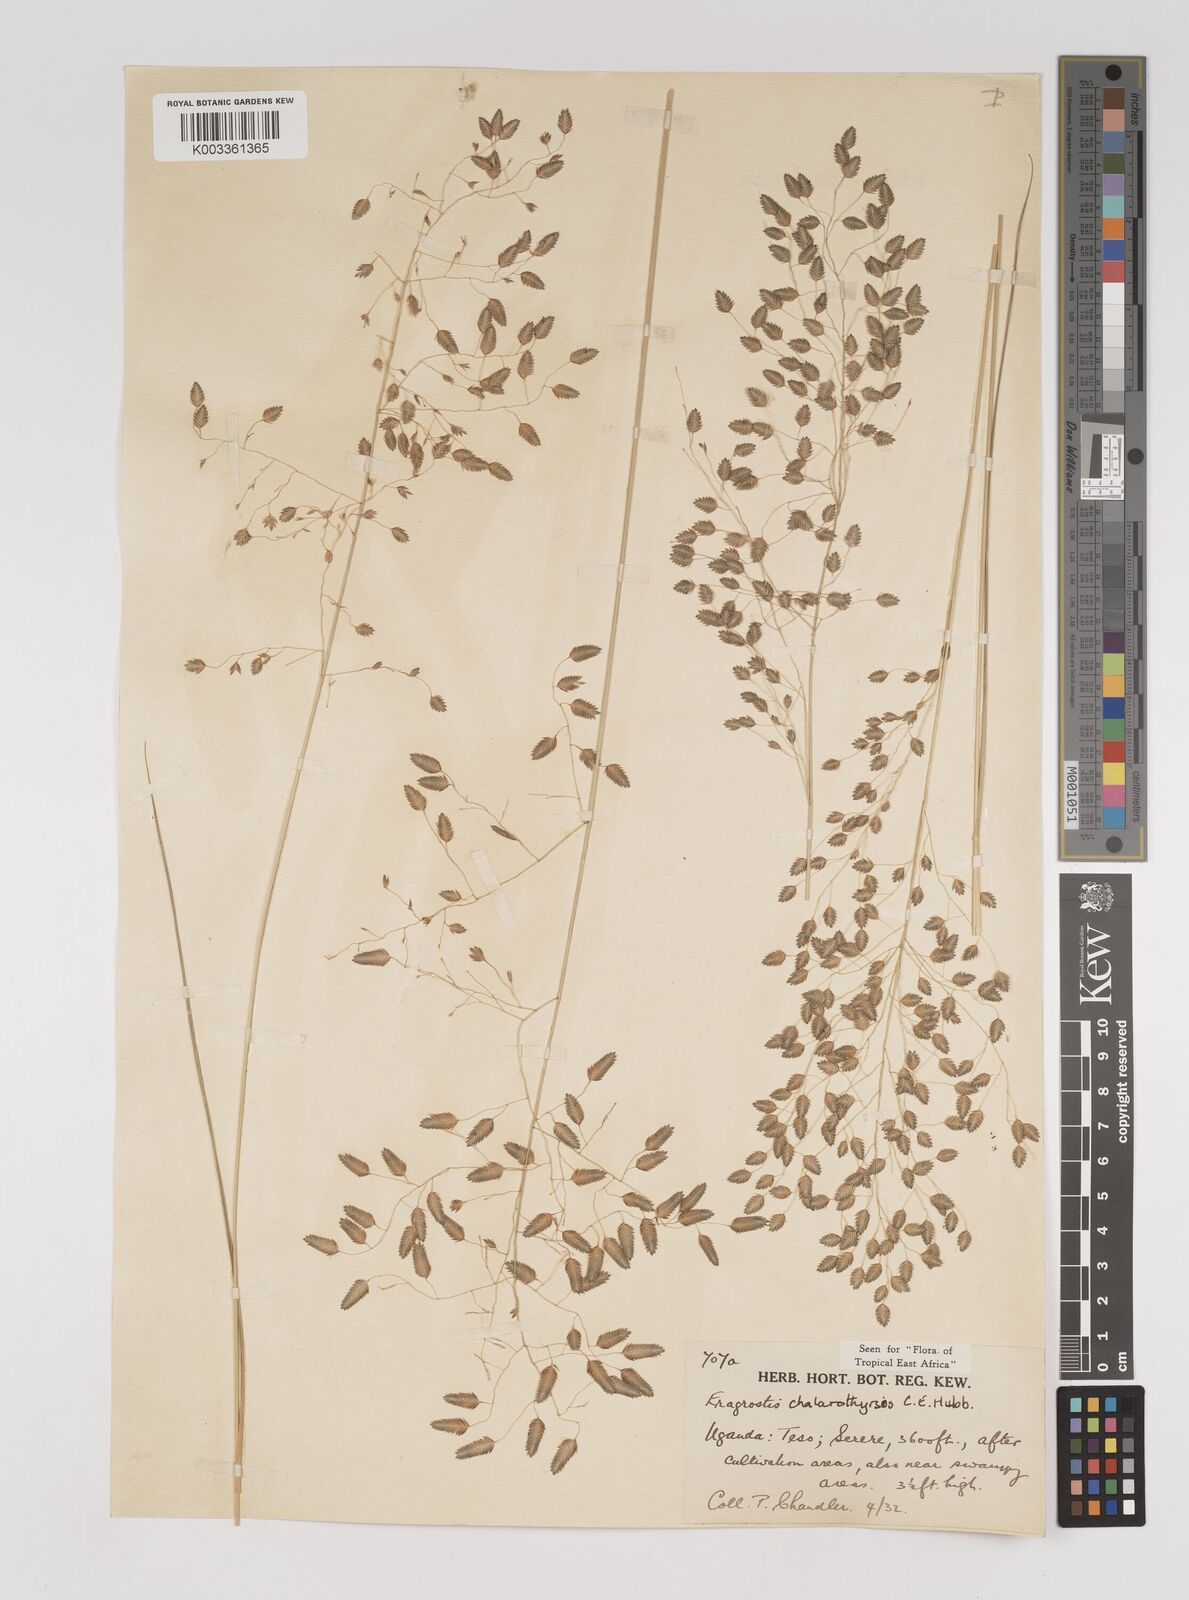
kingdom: Plantae
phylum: Tracheophyta
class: Liliopsida
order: Poales
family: Poaceae
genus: Eragrostis
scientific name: Eragrostis chalarothyrsos
